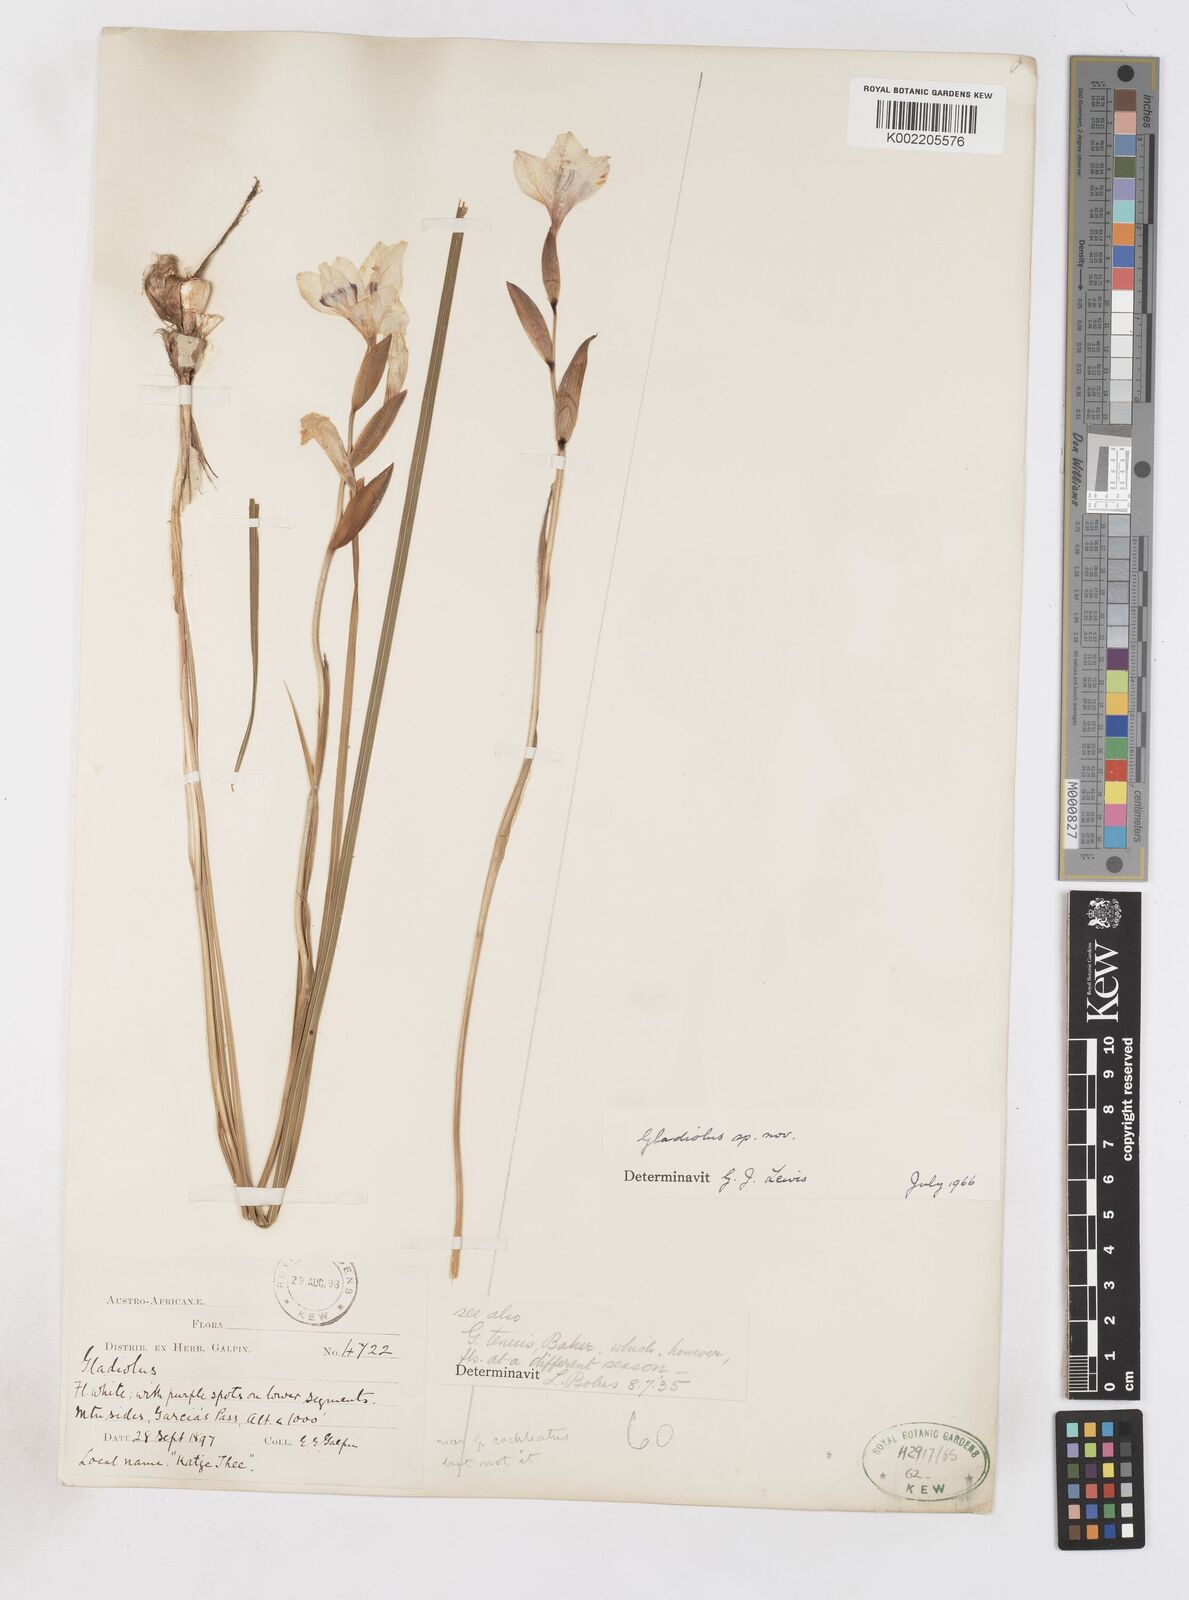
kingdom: Plantae
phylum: Tracheophyta
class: Liliopsida
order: Asparagales
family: Iridaceae
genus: Gladiolus
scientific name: Gladiolus carneus
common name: Painted-lady
